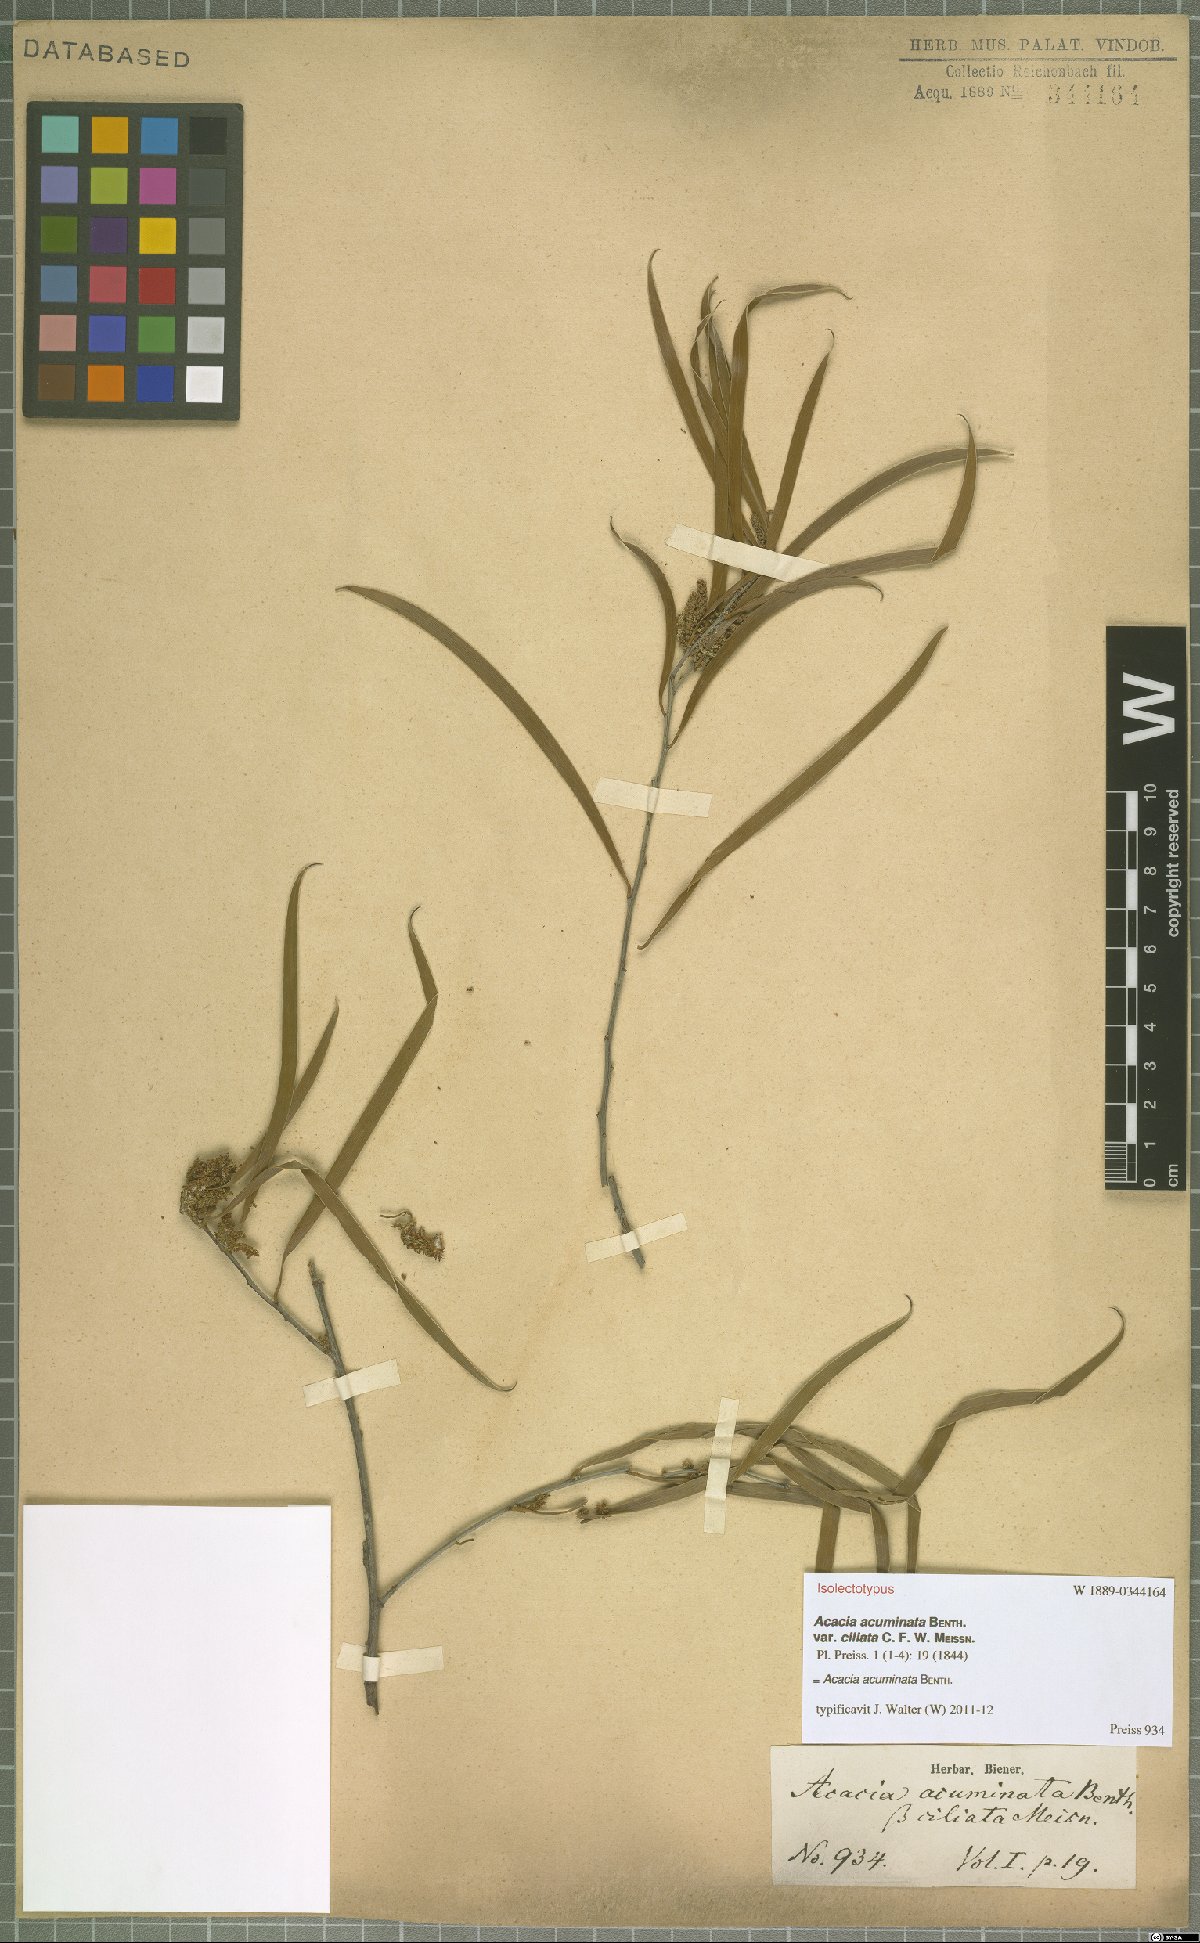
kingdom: Plantae
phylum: Tracheophyta
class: Magnoliopsida
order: Fabales
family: Fabaceae
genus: Acacia
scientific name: Acacia acuminata
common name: Jam wattle
